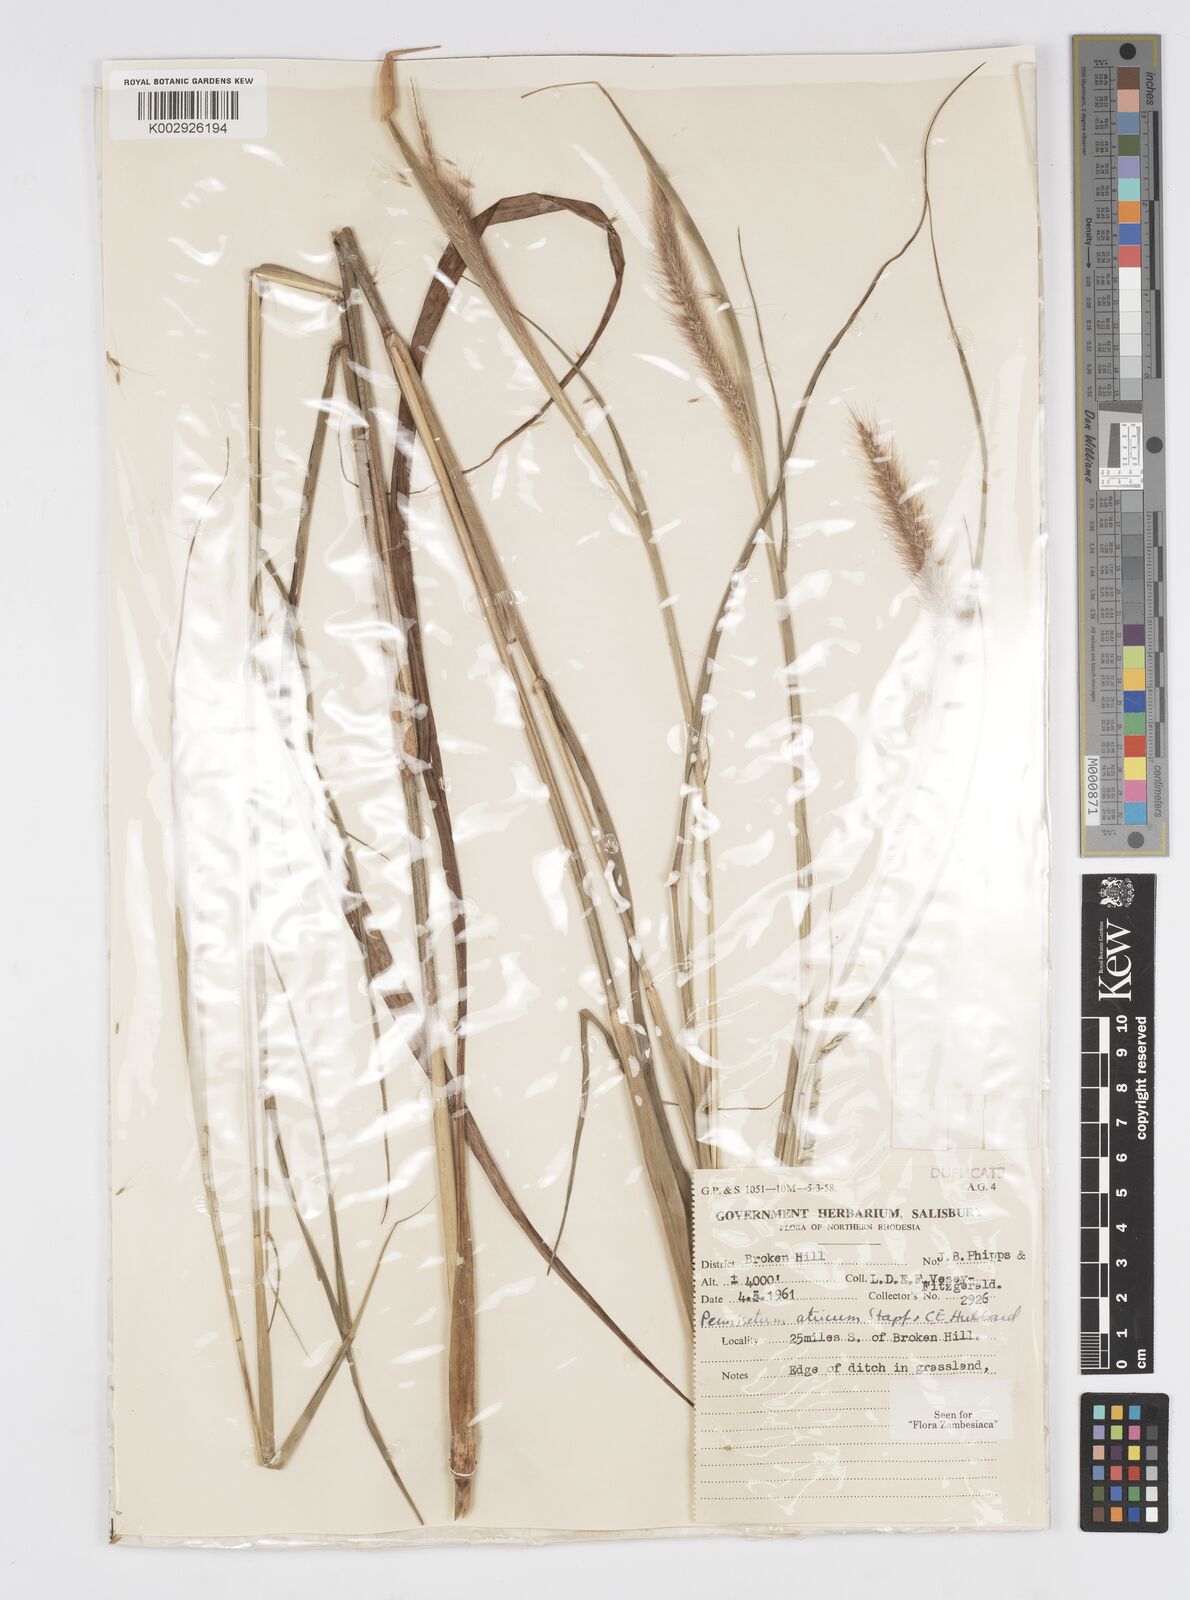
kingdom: Plantae
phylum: Tracheophyta
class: Liliopsida
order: Poales
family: Poaceae
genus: Cenchrus
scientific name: Cenchrus setosus
